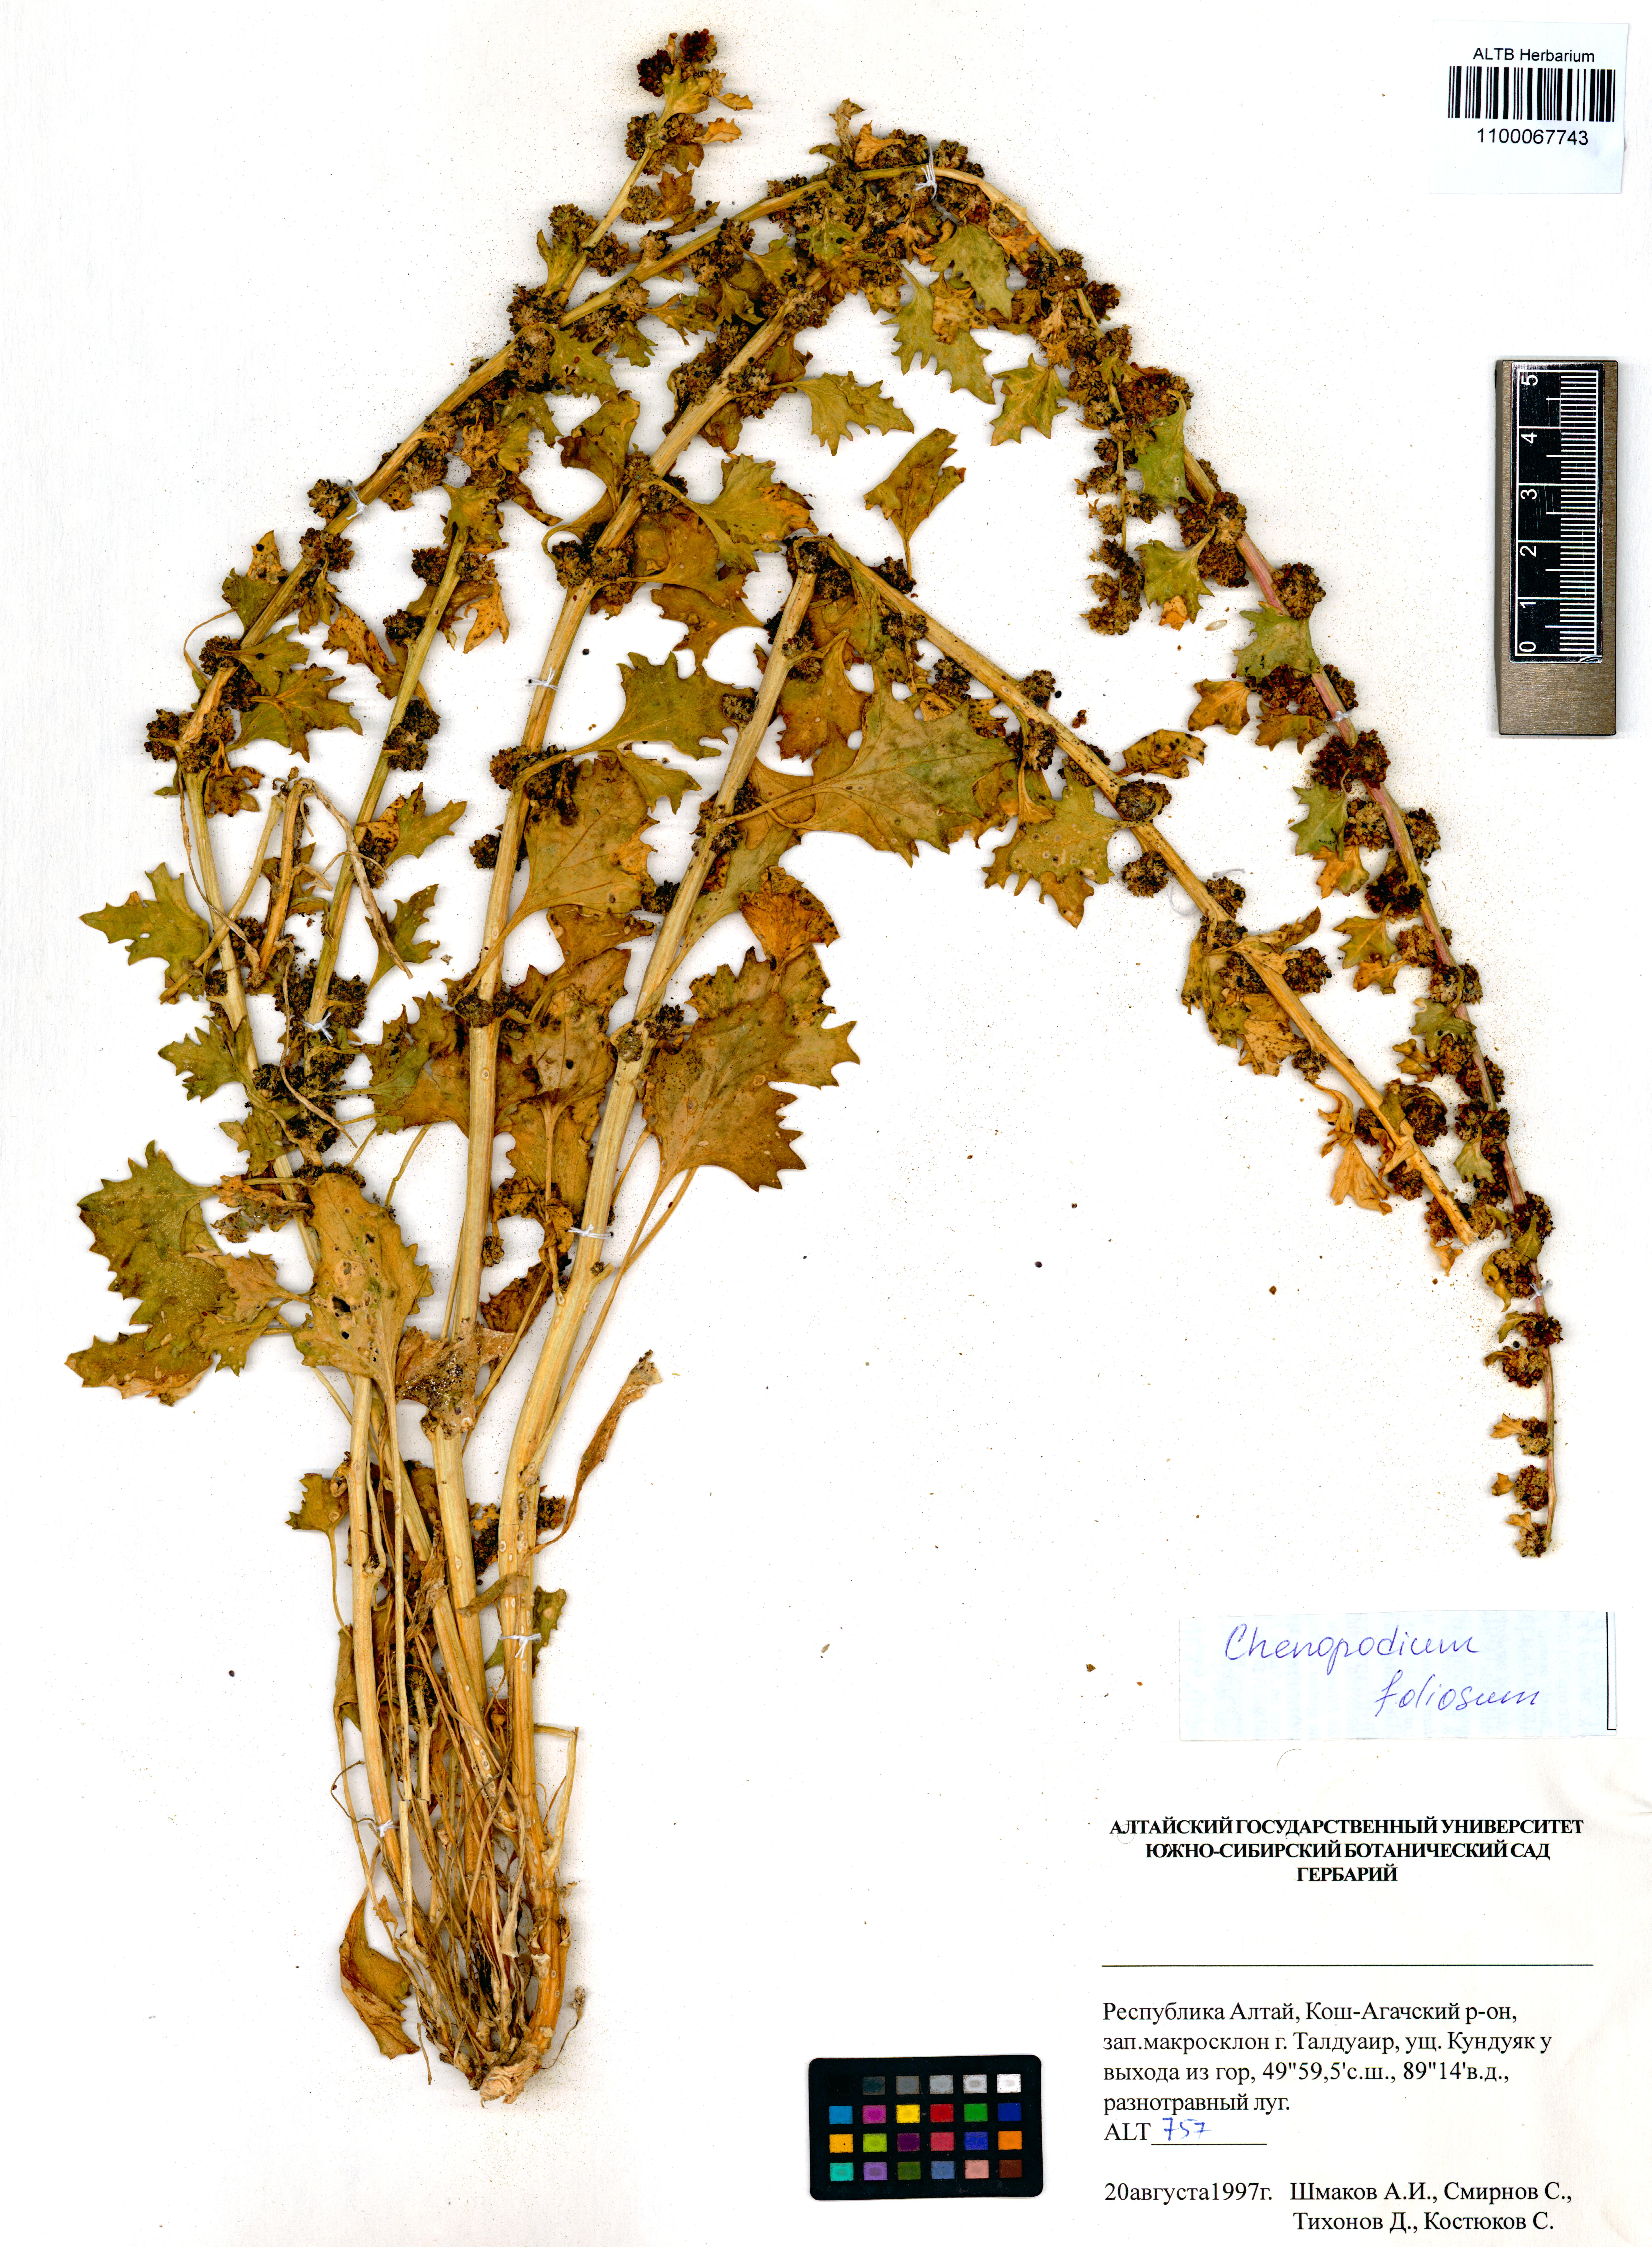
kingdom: Plantae
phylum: Tracheophyta
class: Magnoliopsida
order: Caryophyllales
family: Amaranthaceae
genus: Blitum
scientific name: Blitum virgatum
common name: Strawberry goosefoot
